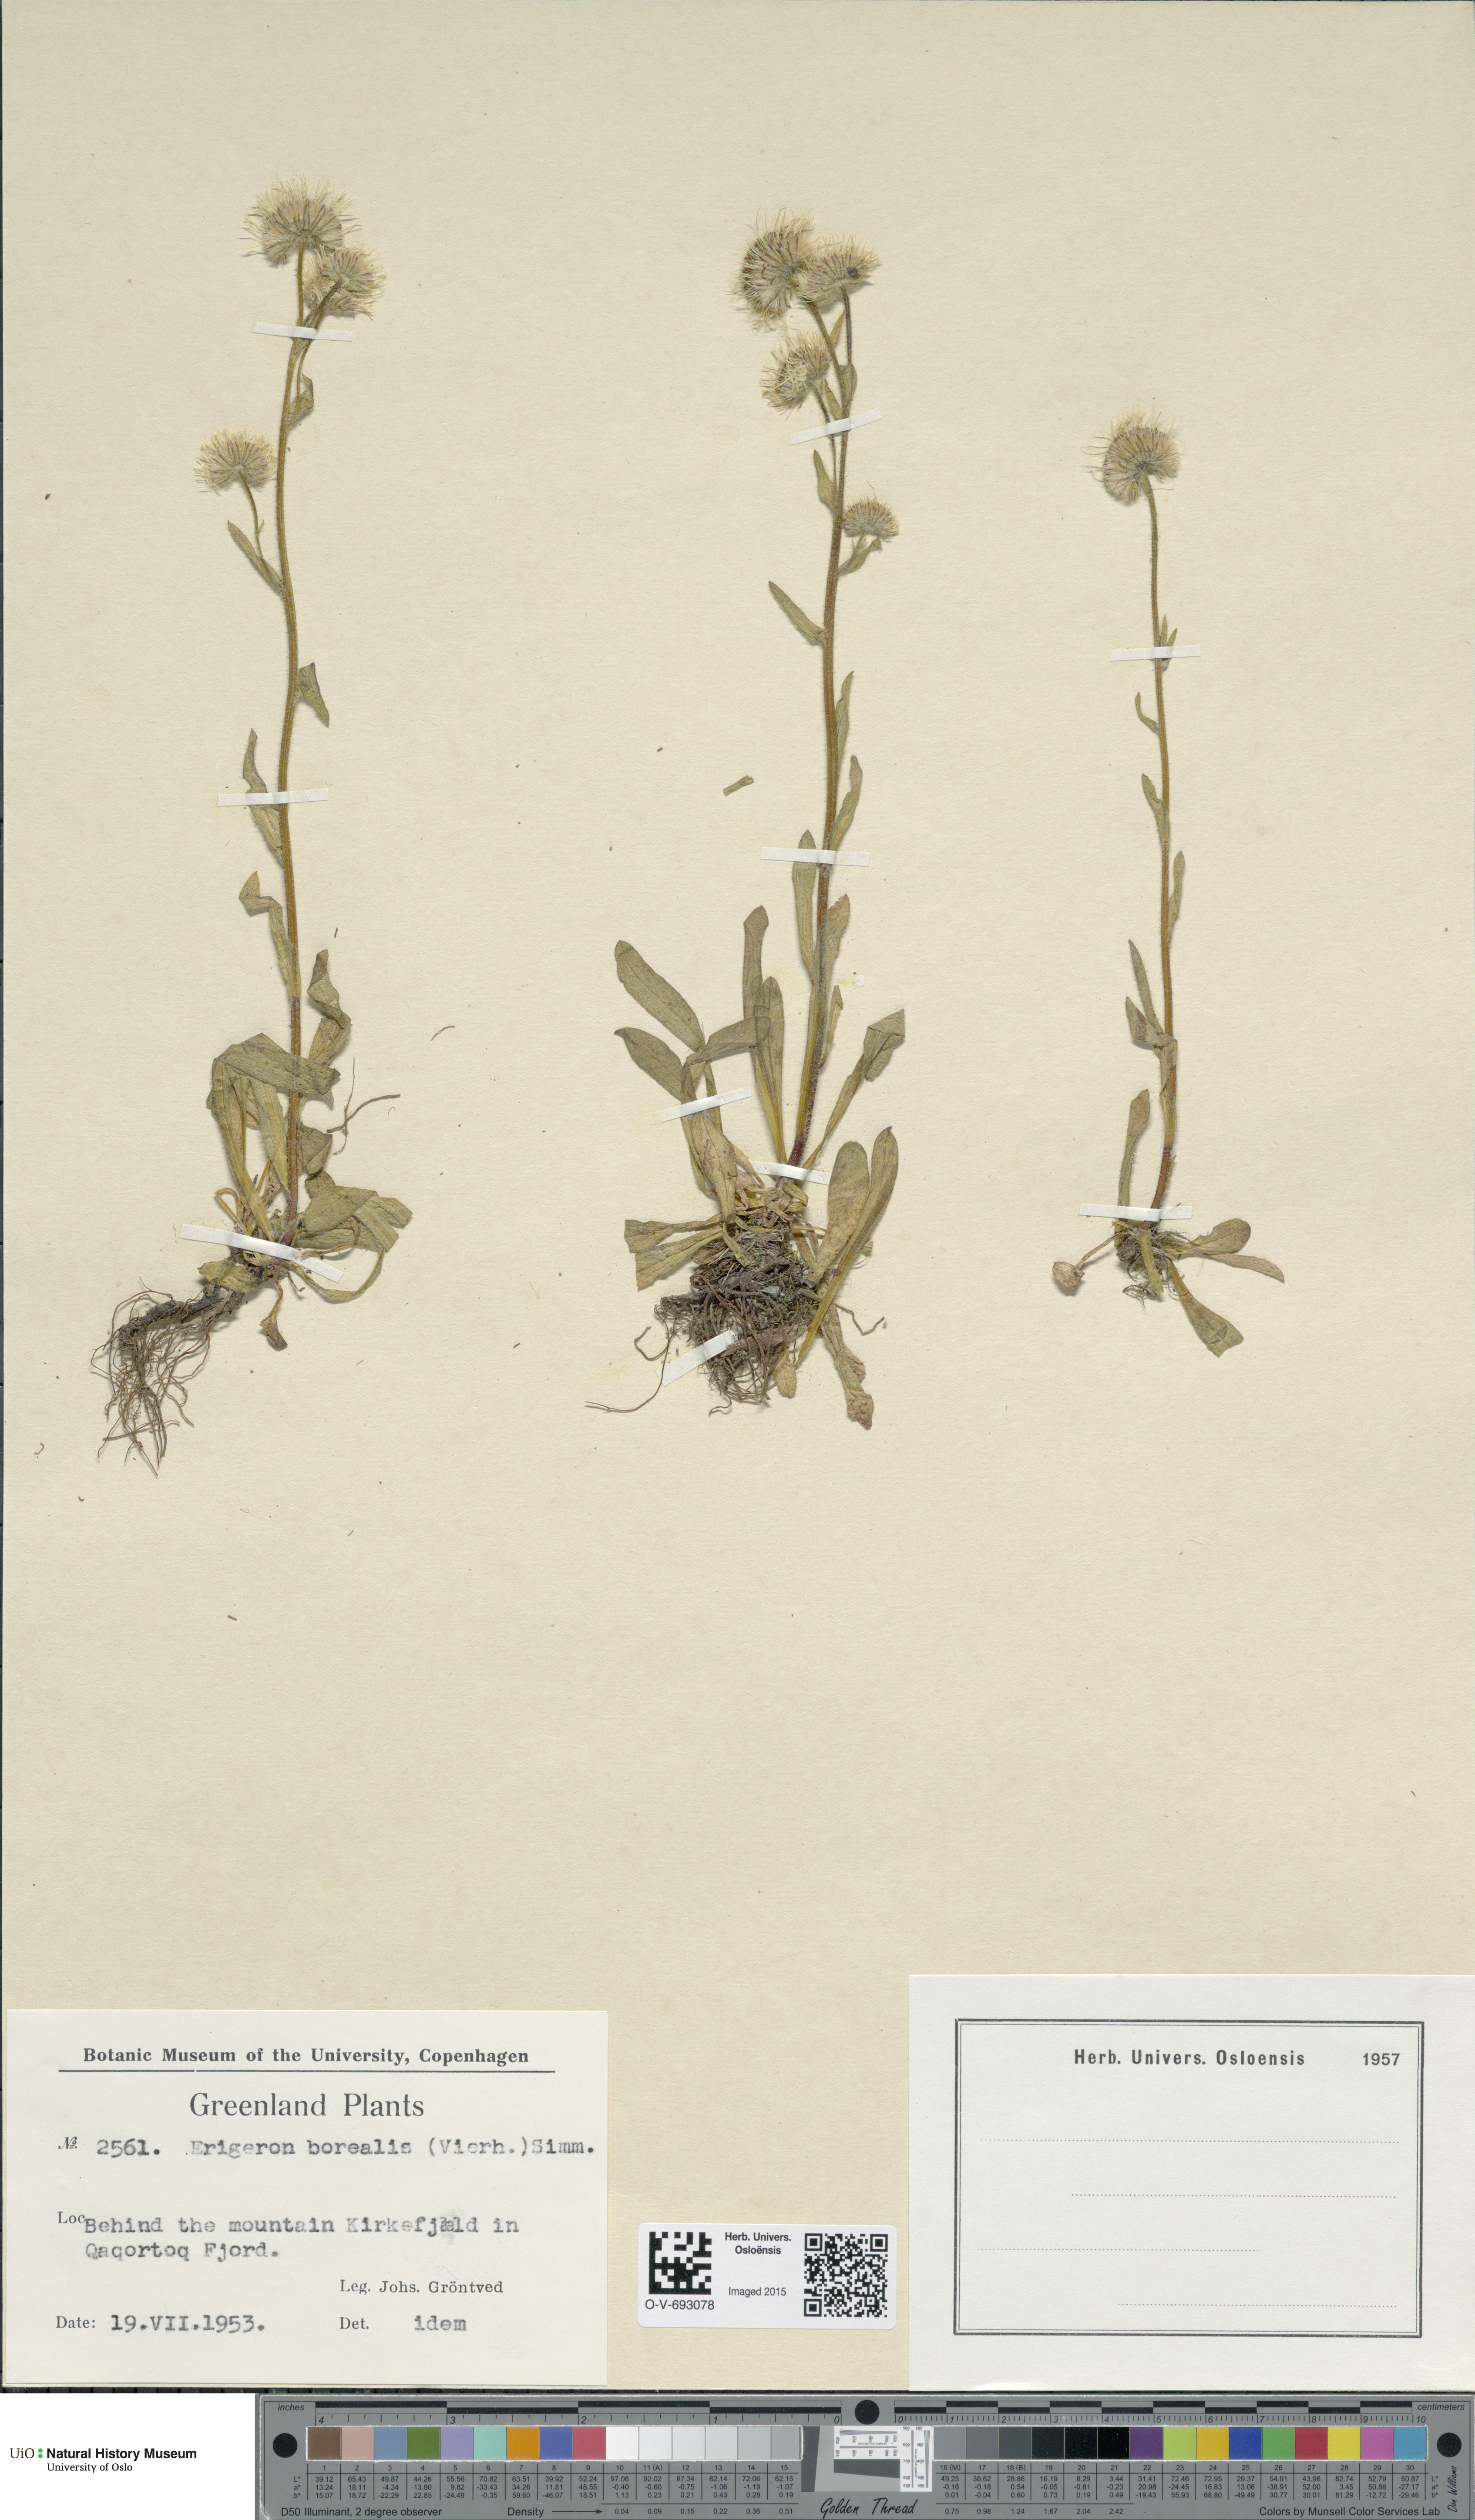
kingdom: Plantae
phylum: Tracheophyta
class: Magnoliopsida
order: Asterales
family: Asteraceae
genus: Erigeron
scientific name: Erigeron borealis
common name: Alpine fleabane
